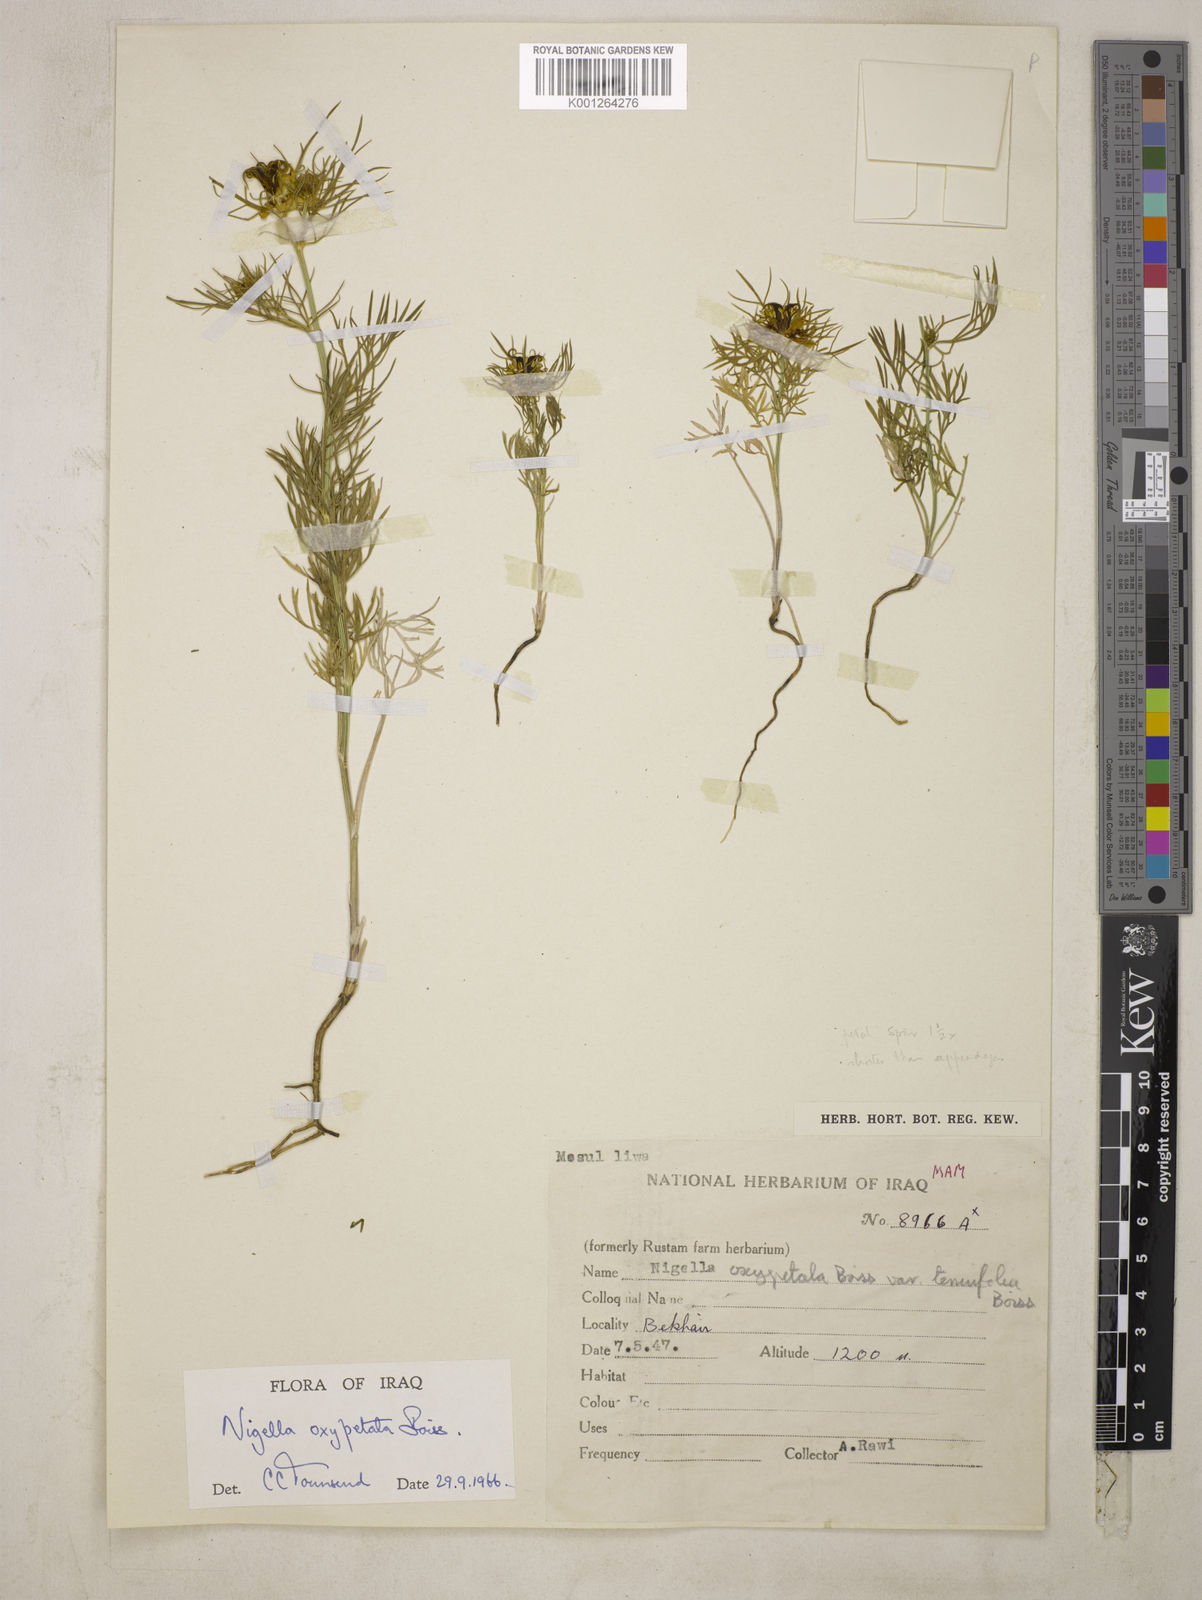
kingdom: Plantae
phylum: Tracheophyta
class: Magnoliopsida
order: Ranunculales
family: Ranunculaceae
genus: Nigella
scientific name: Nigella oxypetala
